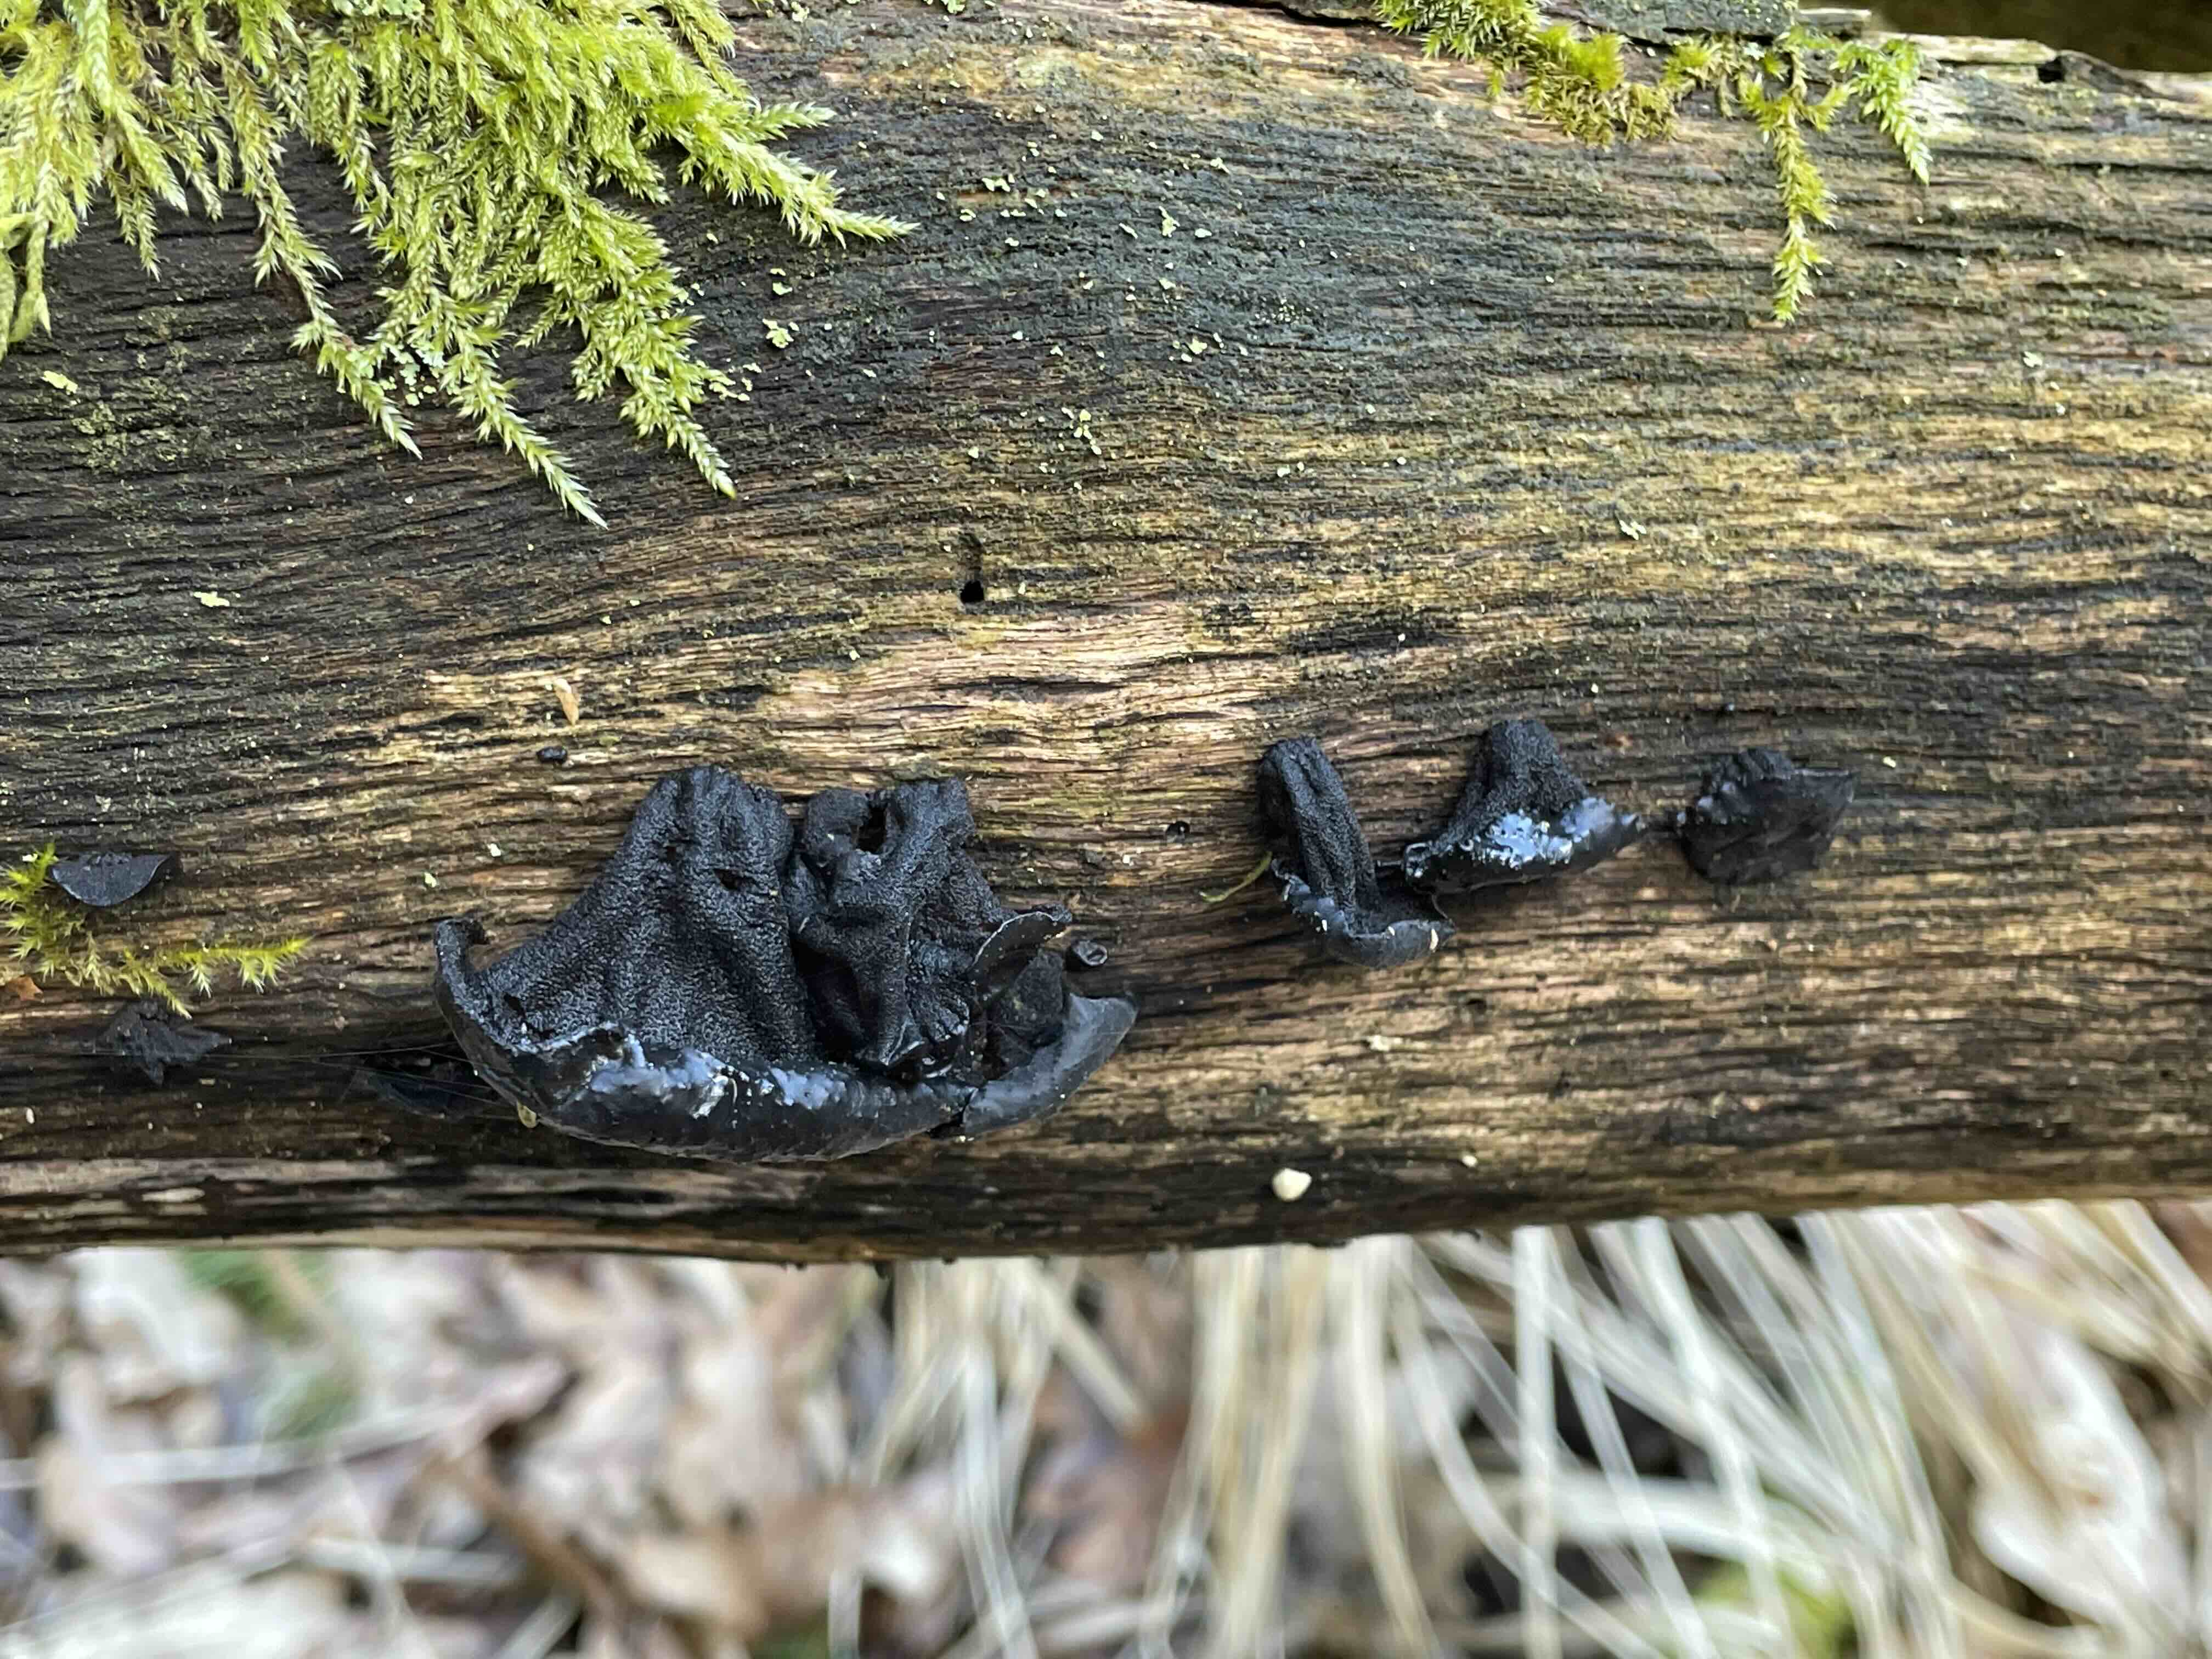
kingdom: Fungi
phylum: Basidiomycota
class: Agaricomycetes
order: Auriculariales
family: Auriculariaceae
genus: Exidia
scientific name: Exidia glandulosa
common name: ege-bævretop
